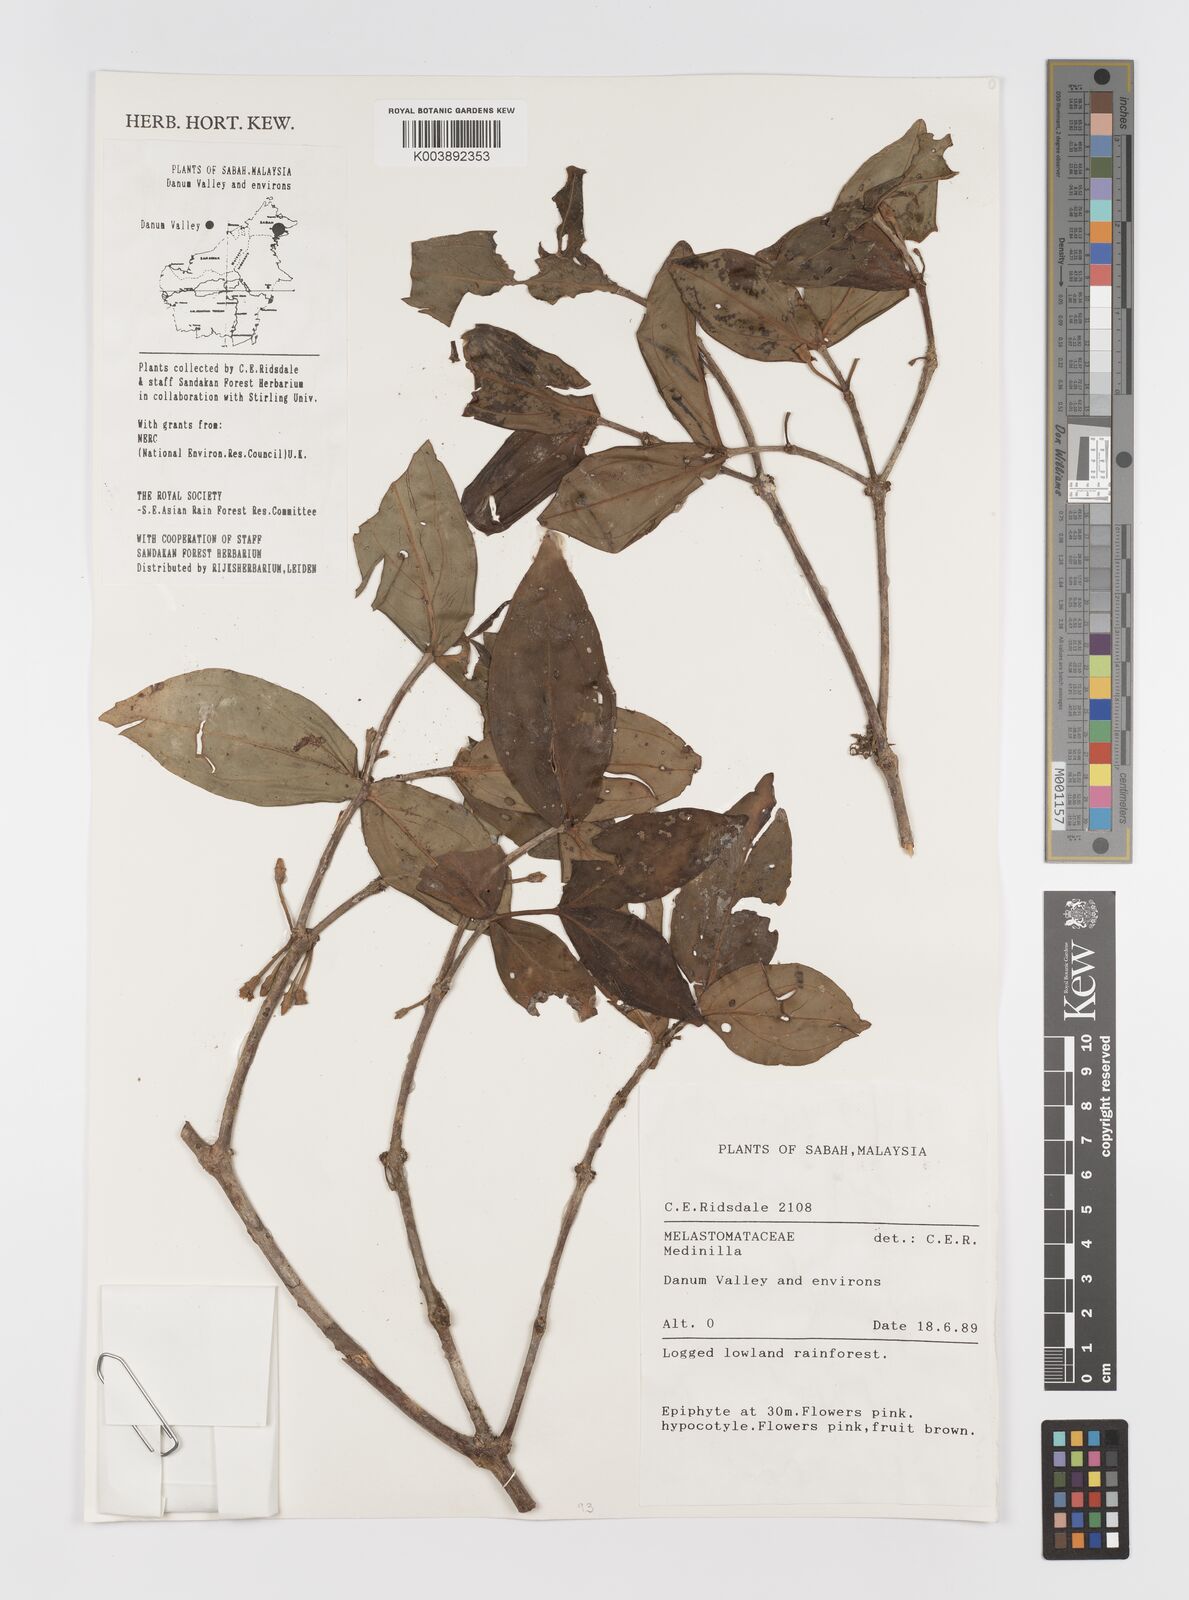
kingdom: Plantae
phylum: Tracheophyta
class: Magnoliopsida
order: Myrtales
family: Melastomataceae
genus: Medinilla
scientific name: Medinilla
